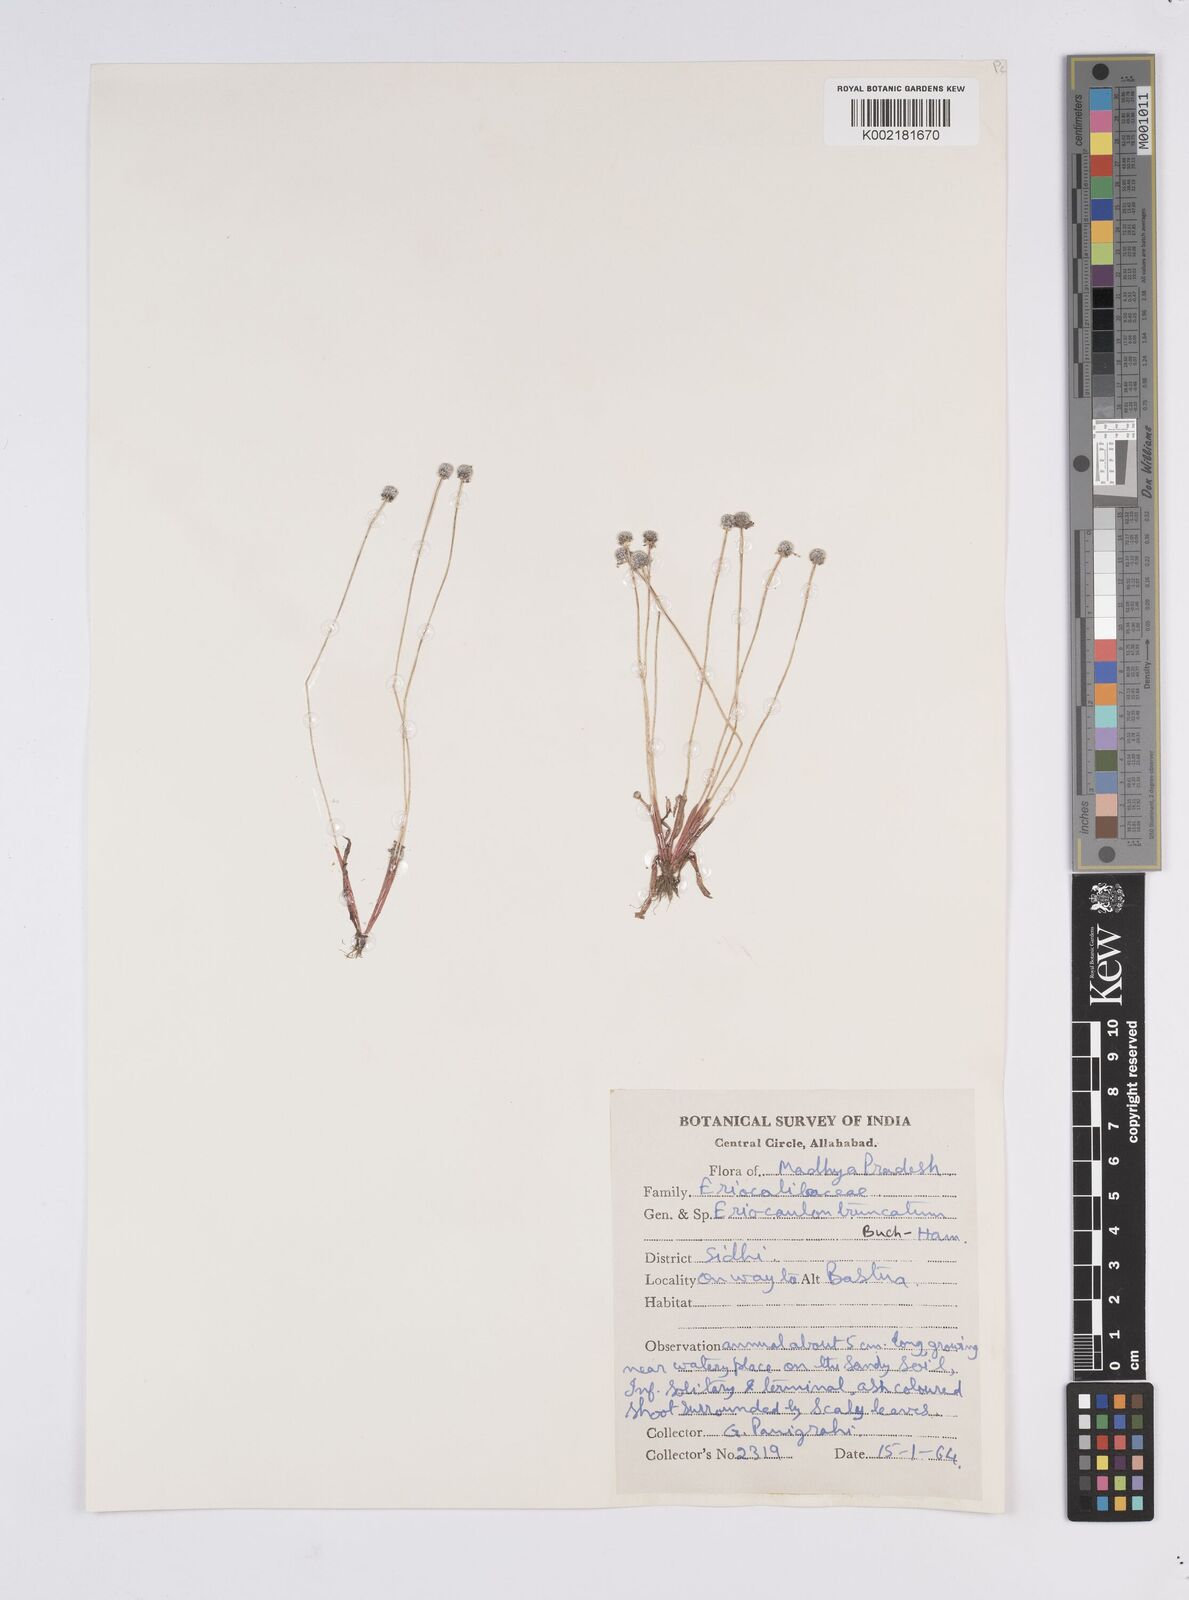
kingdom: Plantae
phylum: Tracheophyta
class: Liliopsida
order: Poales
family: Eriocaulaceae
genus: Eriocaulon
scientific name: Eriocaulon quinquangulare
